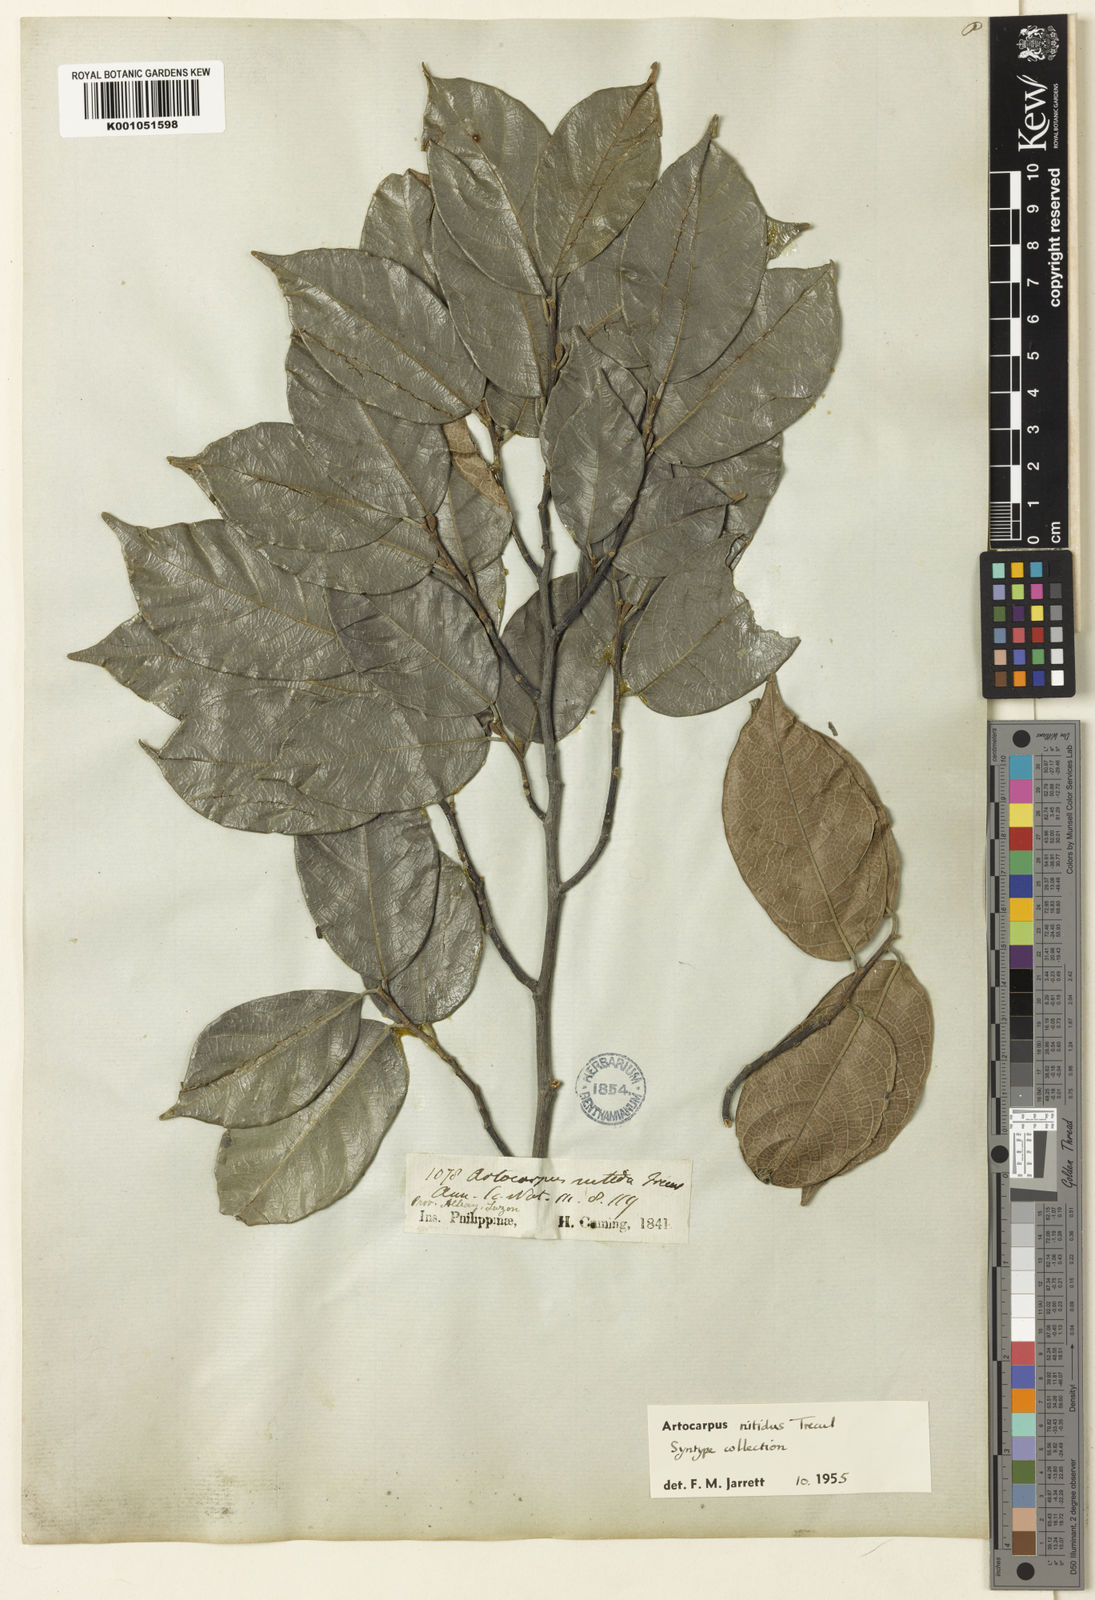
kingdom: Plantae
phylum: Tracheophyta
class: Magnoliopsida
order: Rosales
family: Moraceae
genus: Artocarpus
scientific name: Artocarpus
